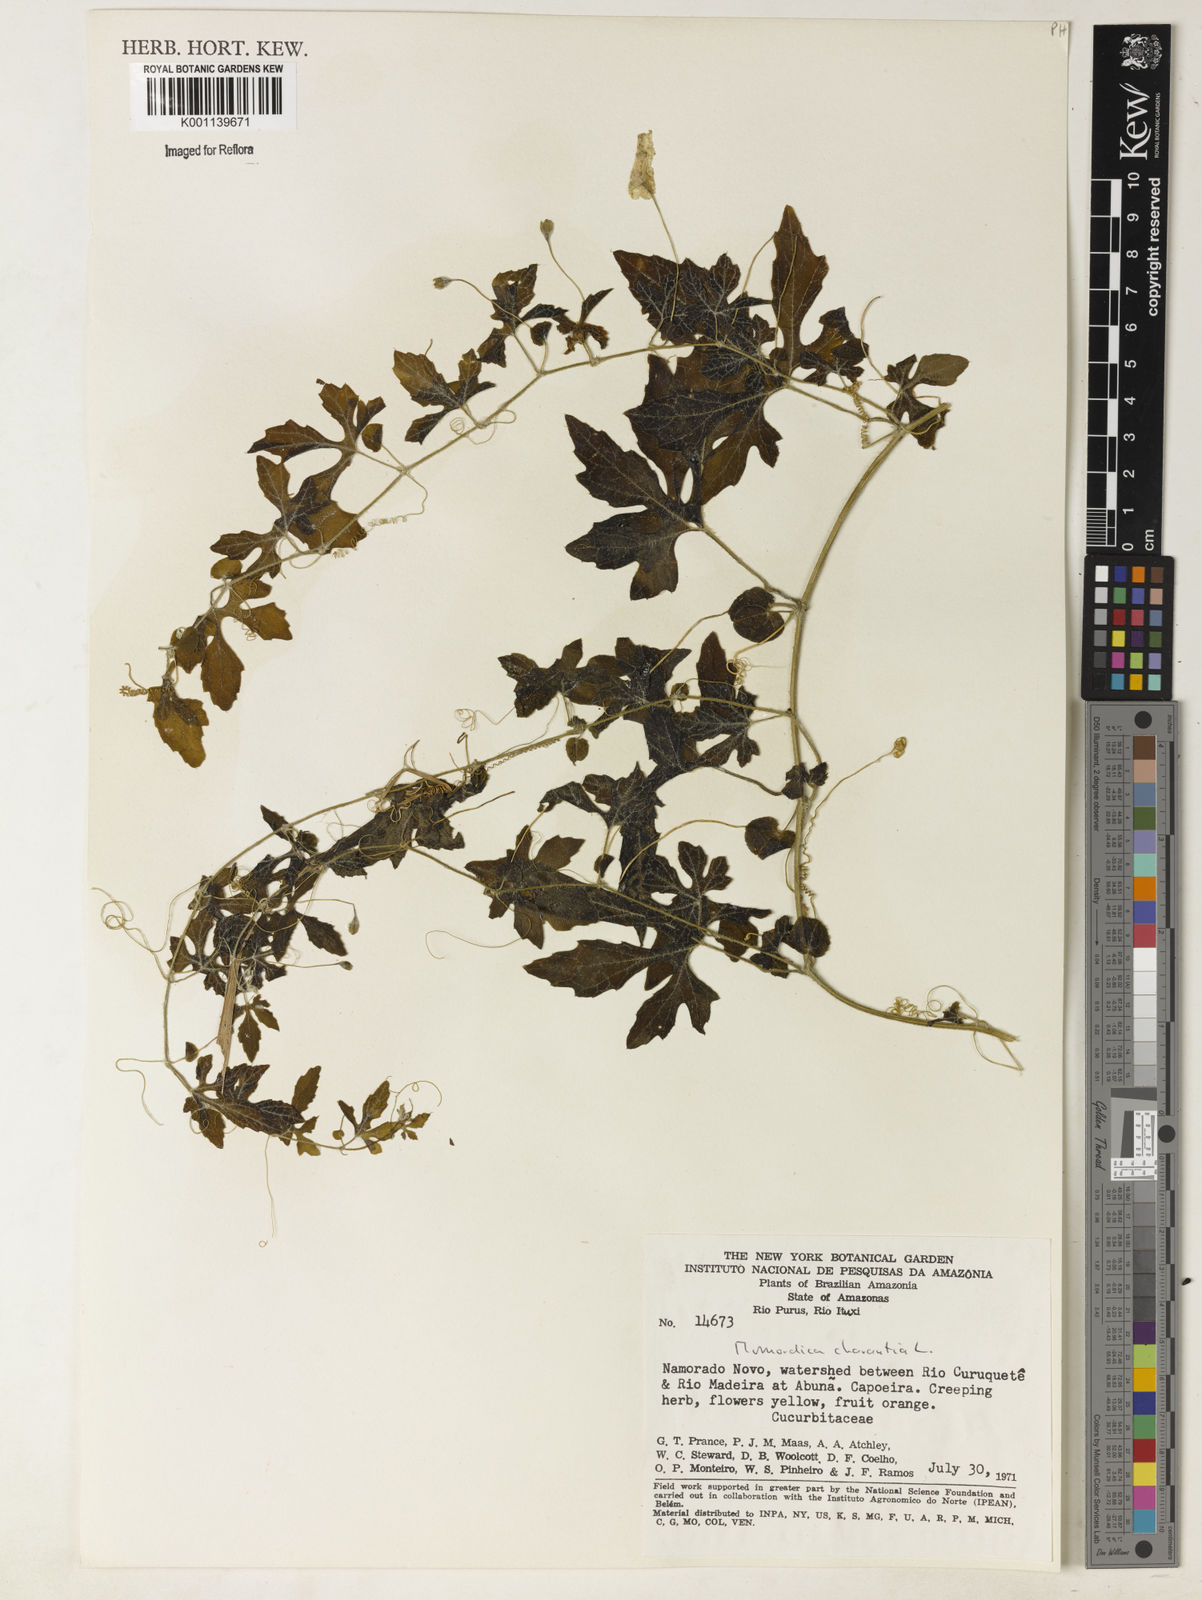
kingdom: Plantae
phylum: Tracheophyta
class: Magnoliopsida
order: Cucurbitales
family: Cucurbitaceae
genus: Momordica
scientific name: Momordica charantia
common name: Balsampear
